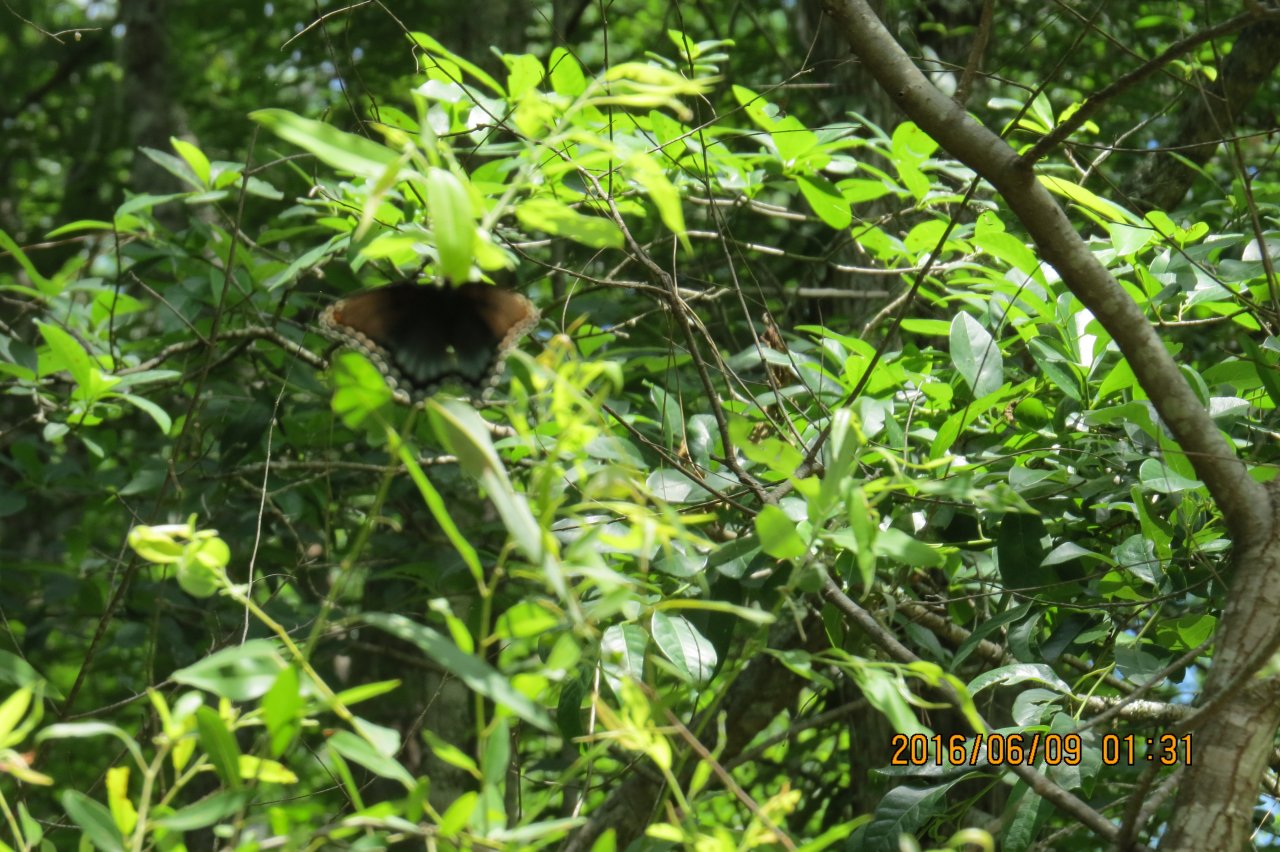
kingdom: Animalia
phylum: Arthropoda
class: Insecta
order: Lepidoptera
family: Nymphalidae
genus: Limenitis
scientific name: Limenitis astyanax
